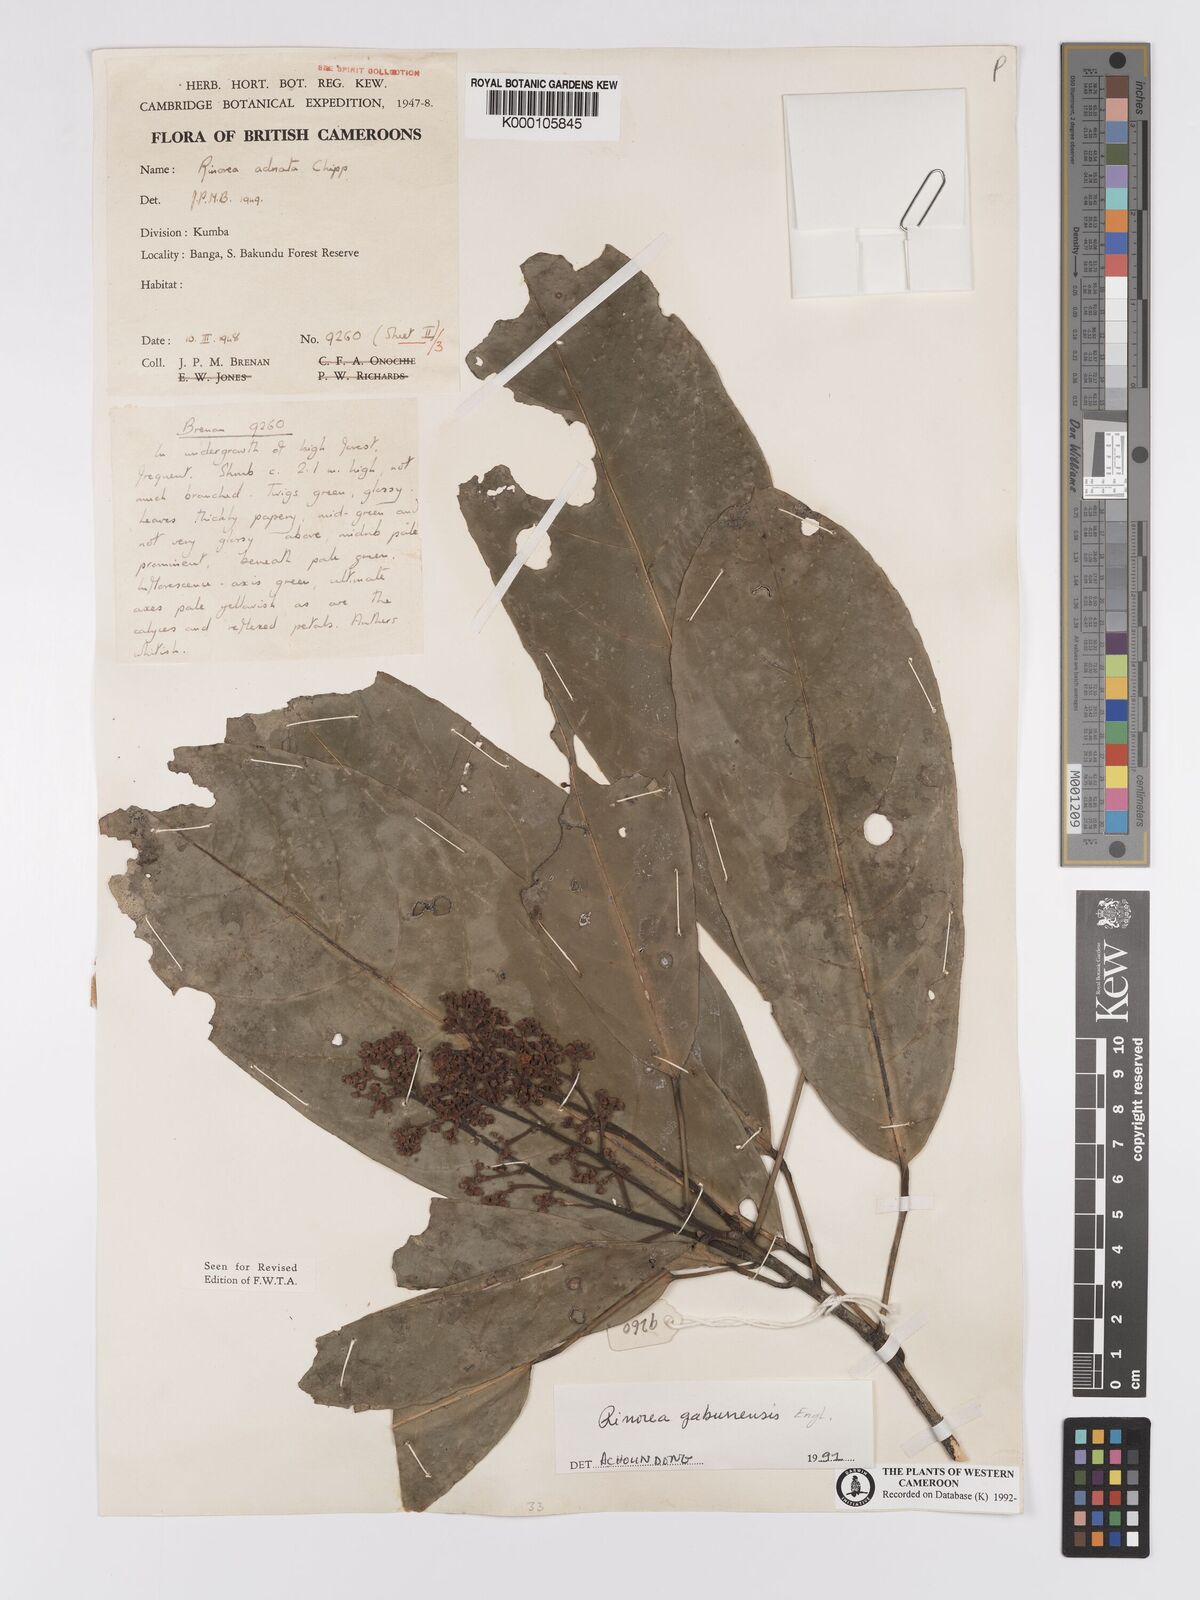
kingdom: Plantae
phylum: Tracheophyta
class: Magnoliopsida
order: Malpighiales
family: Violaceae
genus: Rinorea
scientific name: Rinorea gabunensis
